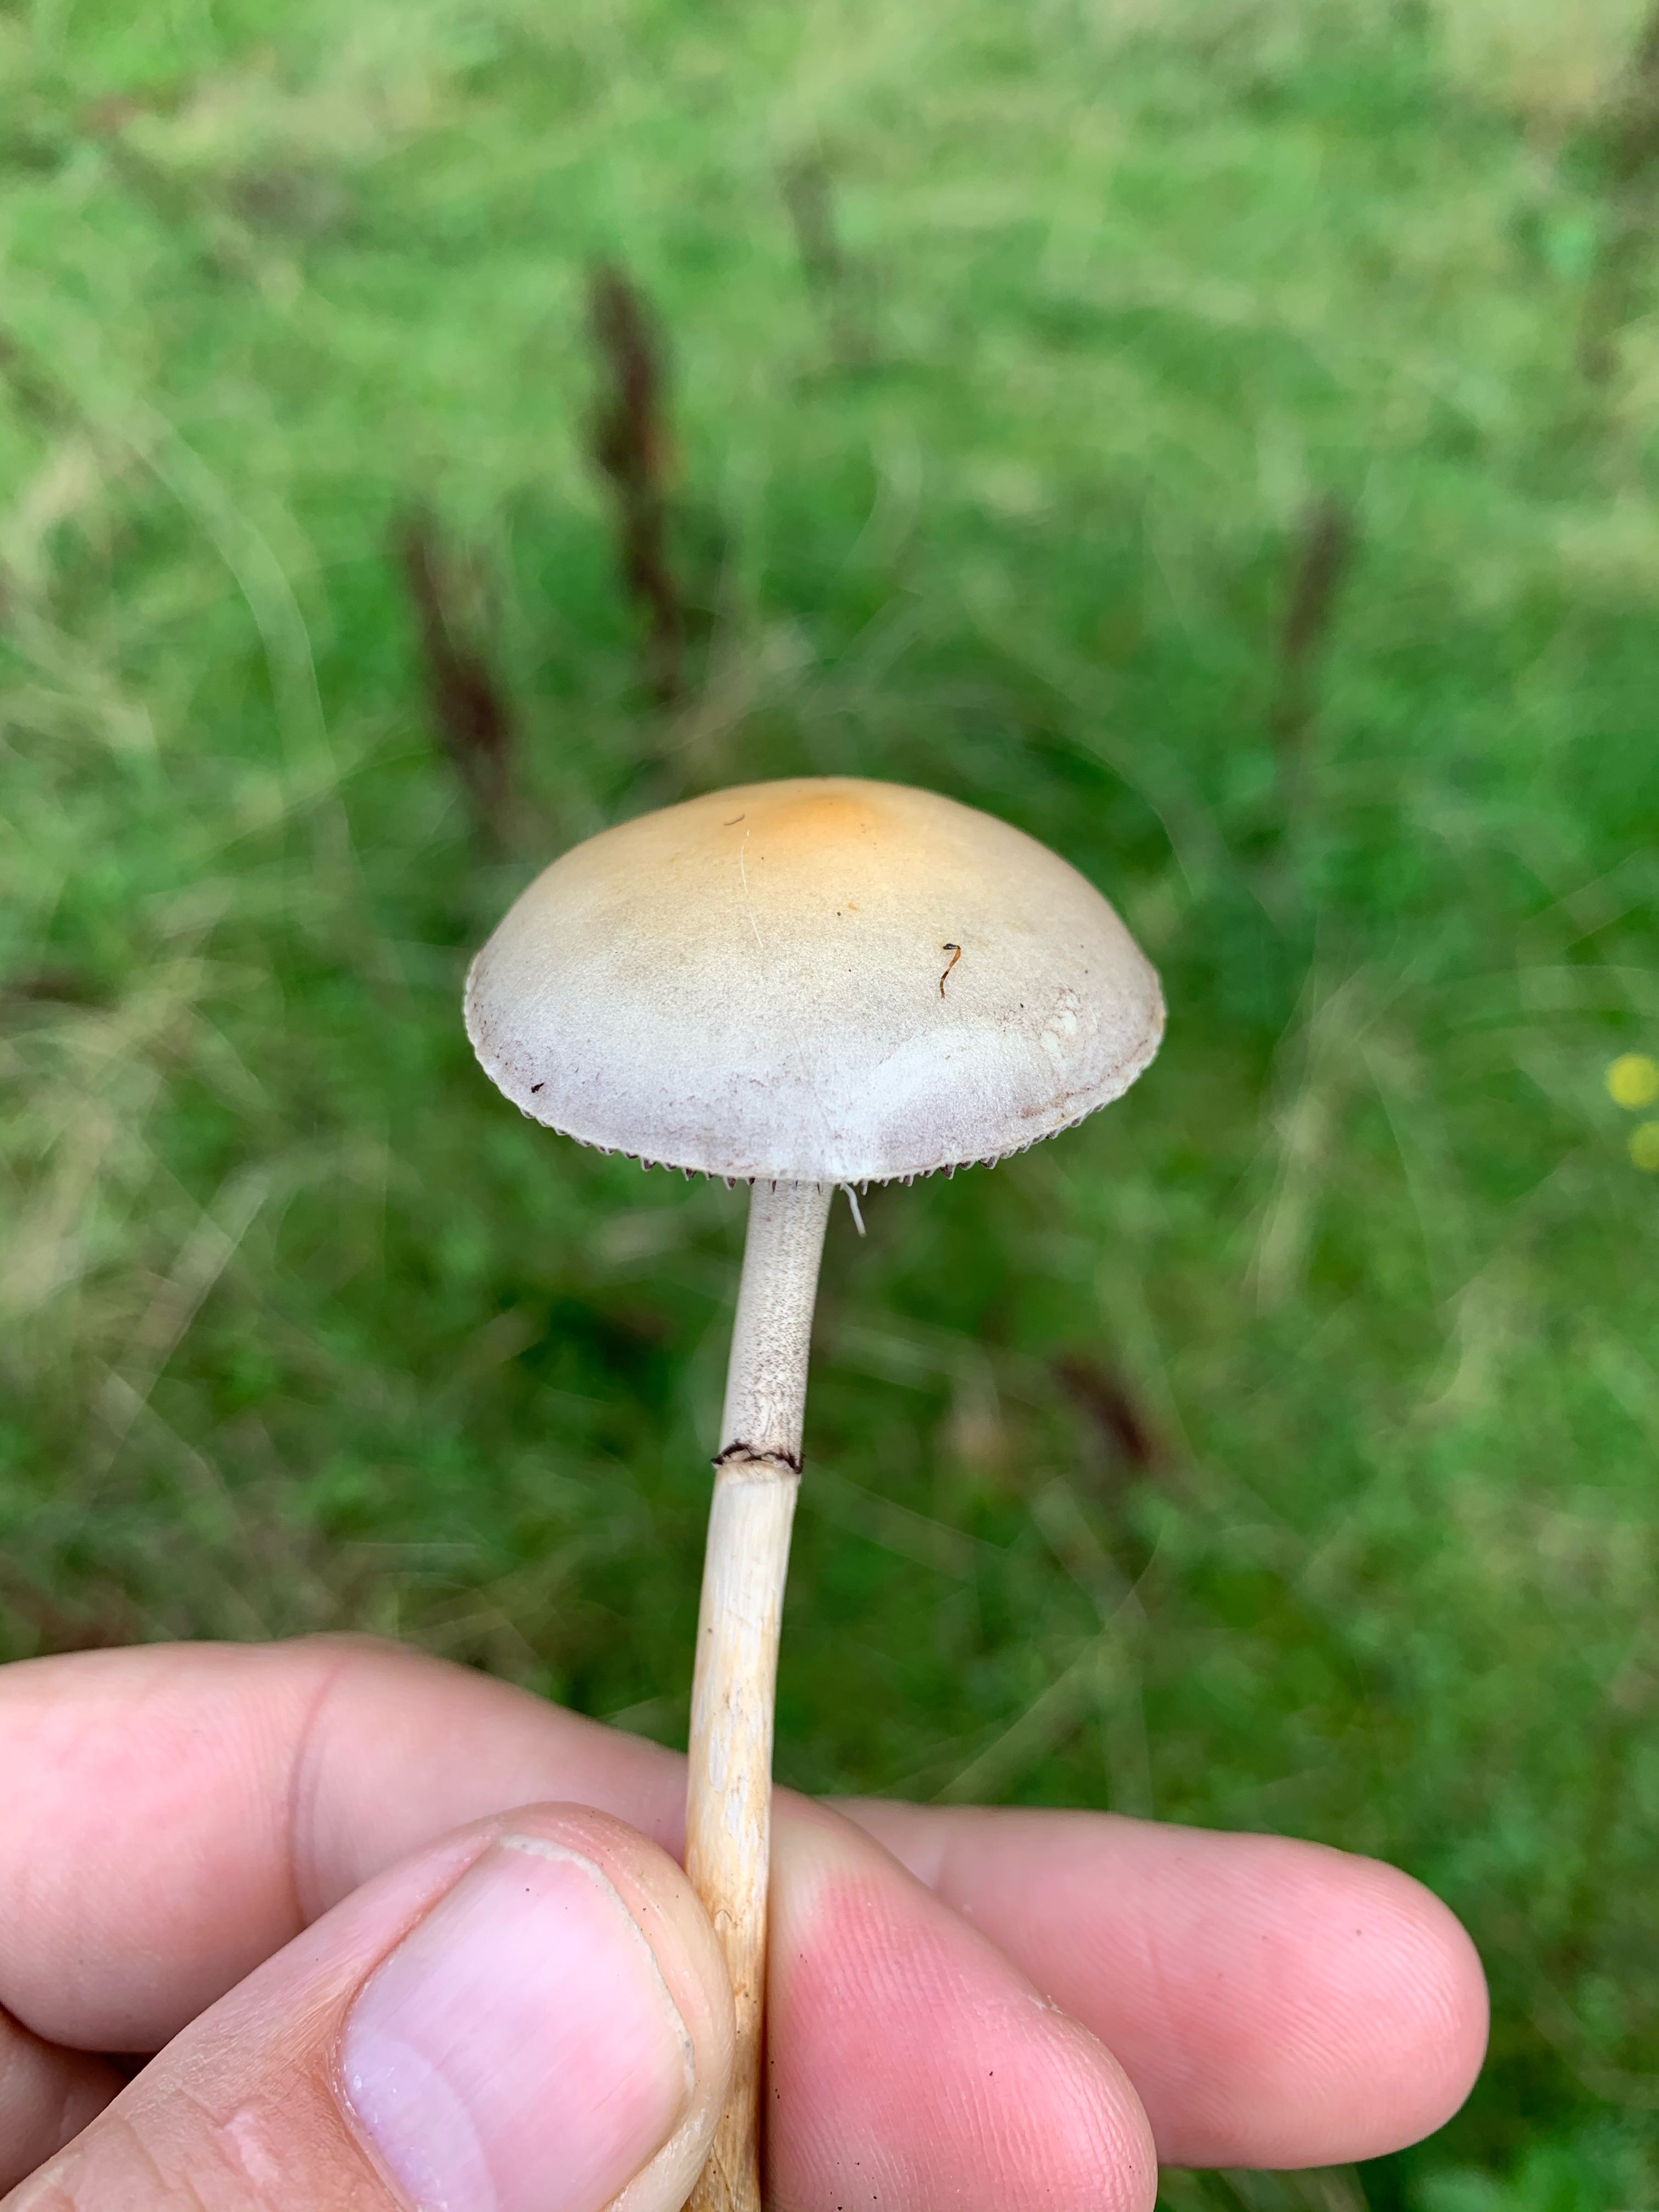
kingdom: Fungi
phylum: Basidiomycota
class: Agaricomycetes
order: Agaricales
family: Strophariaceae
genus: Protostropharia
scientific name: Protostropharia semiglobata
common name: halvkugleformet bredblad
